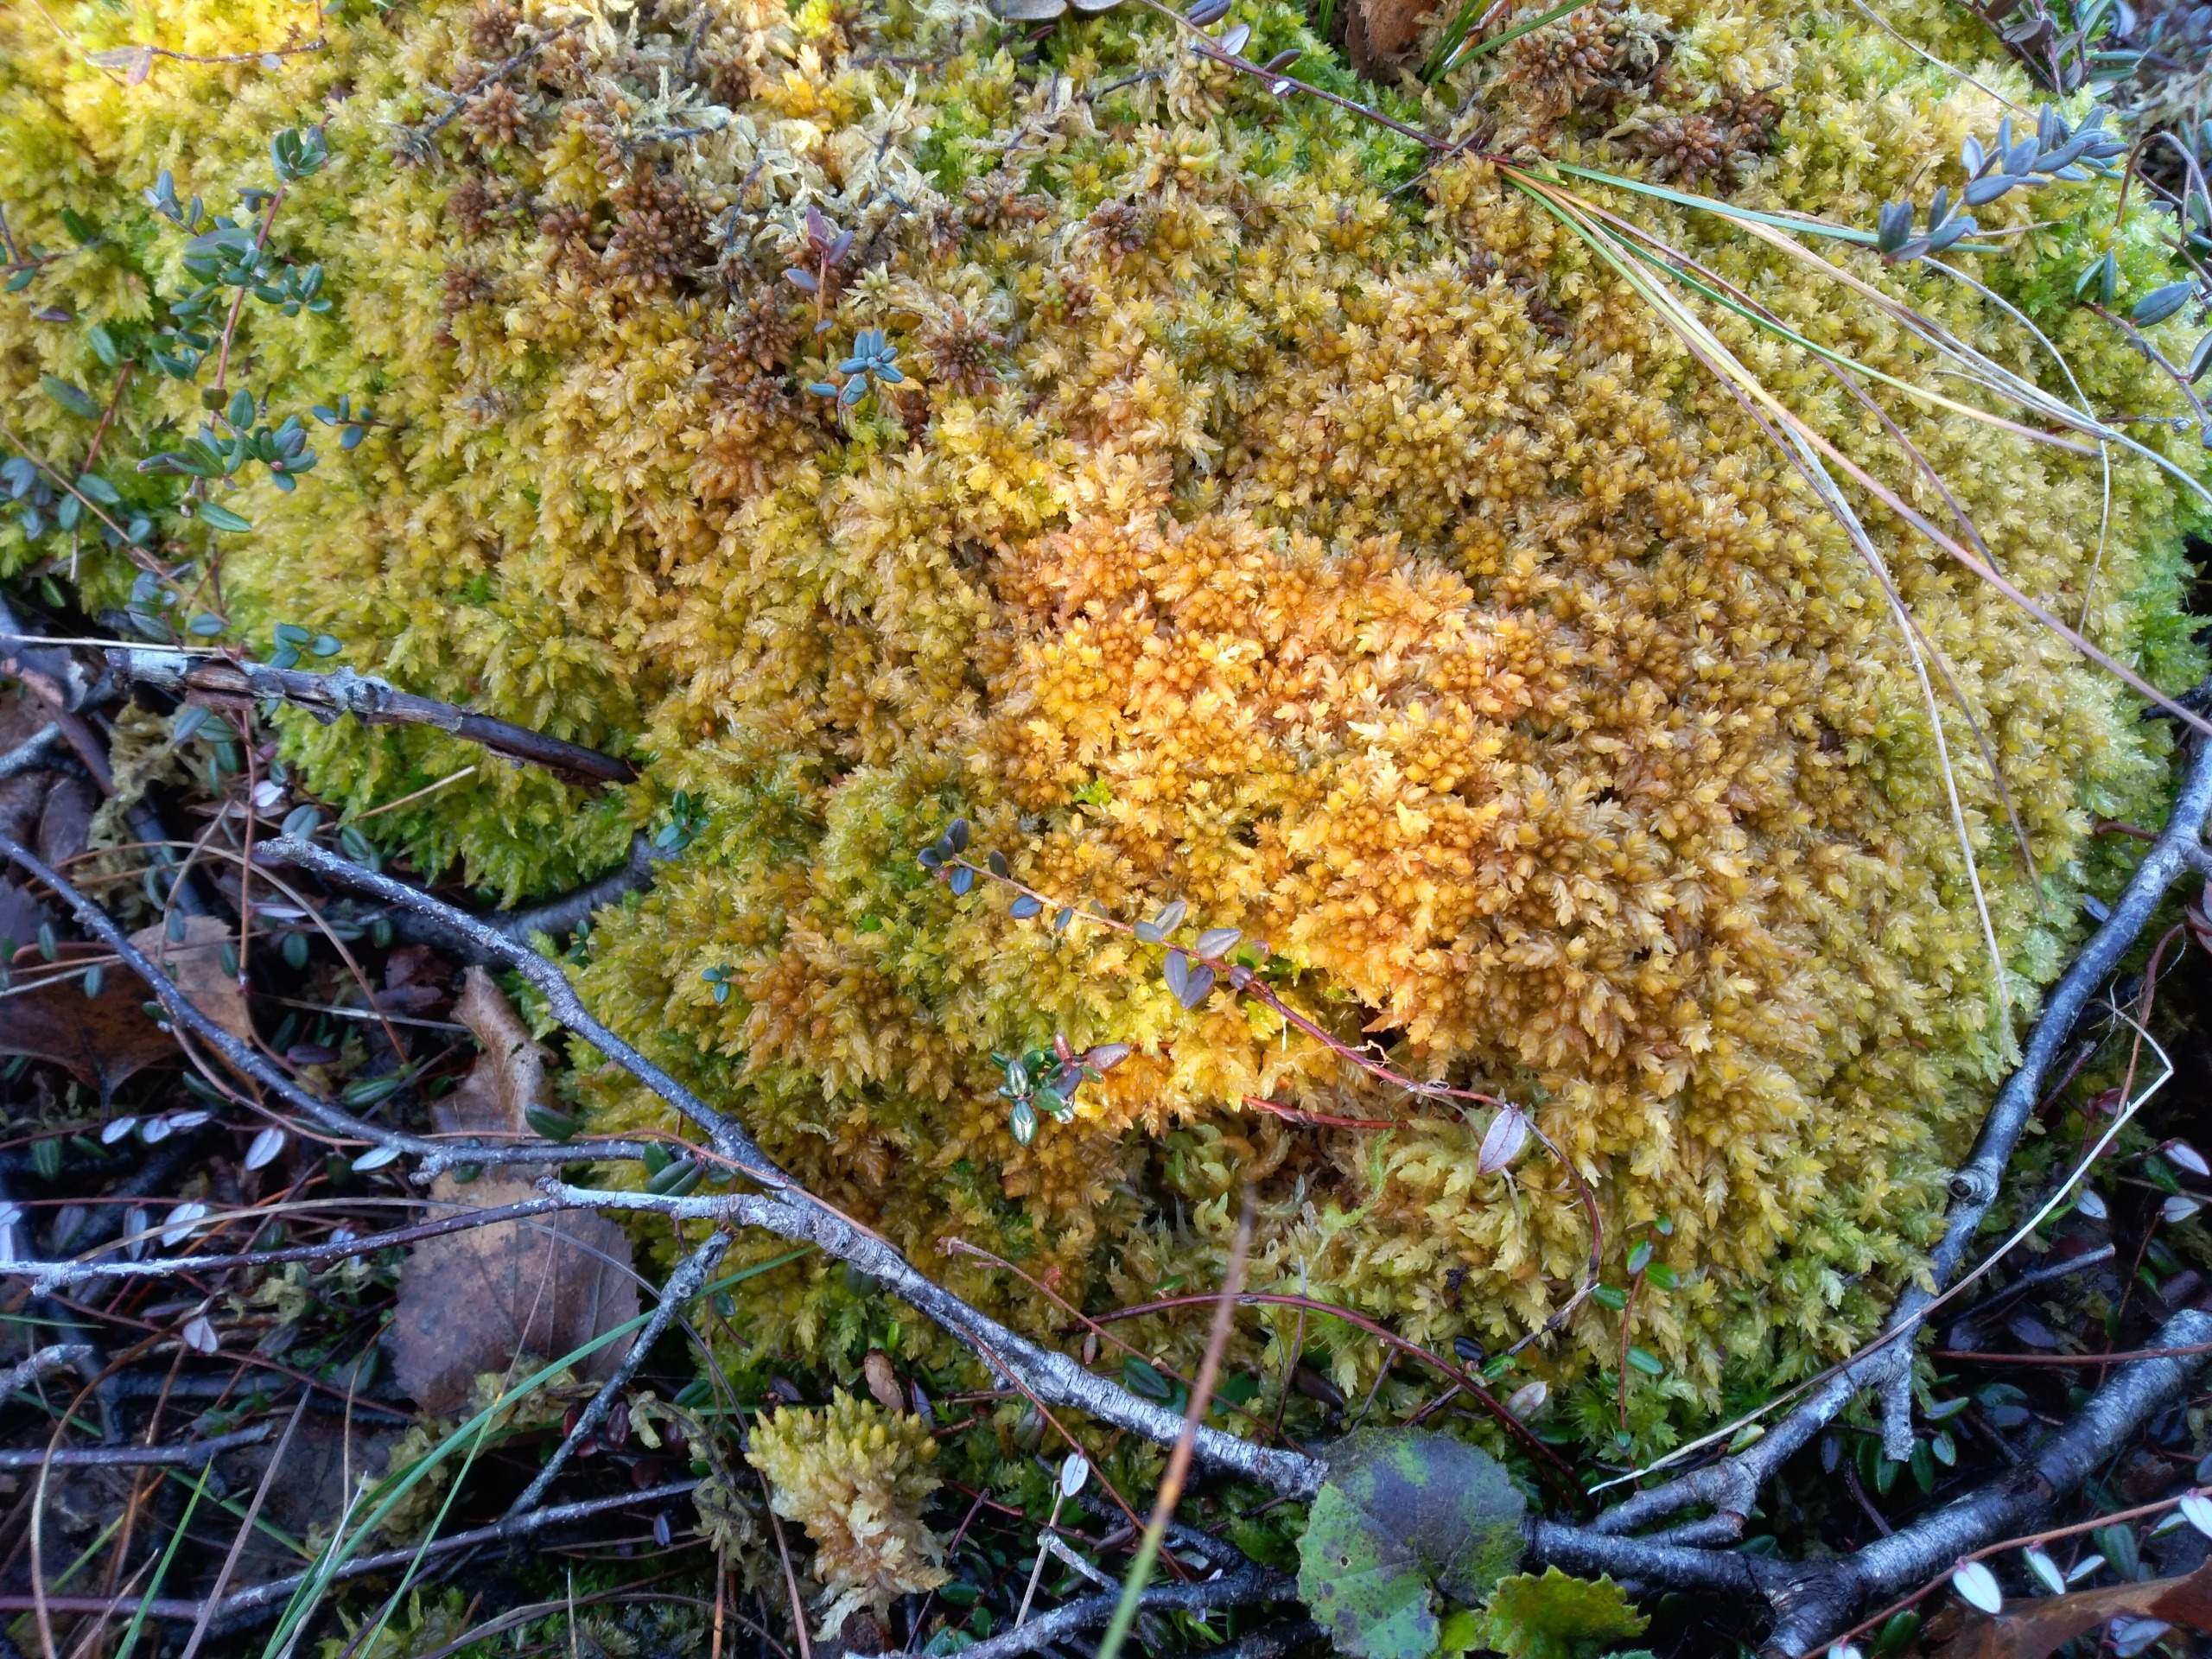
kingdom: Plantae
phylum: Bryophyta
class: Sphagnopsida
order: Sphagnales
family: Sphagnaceae
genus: Sphagnum
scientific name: Sphagnum papillosum
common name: Sod-tørvemos
